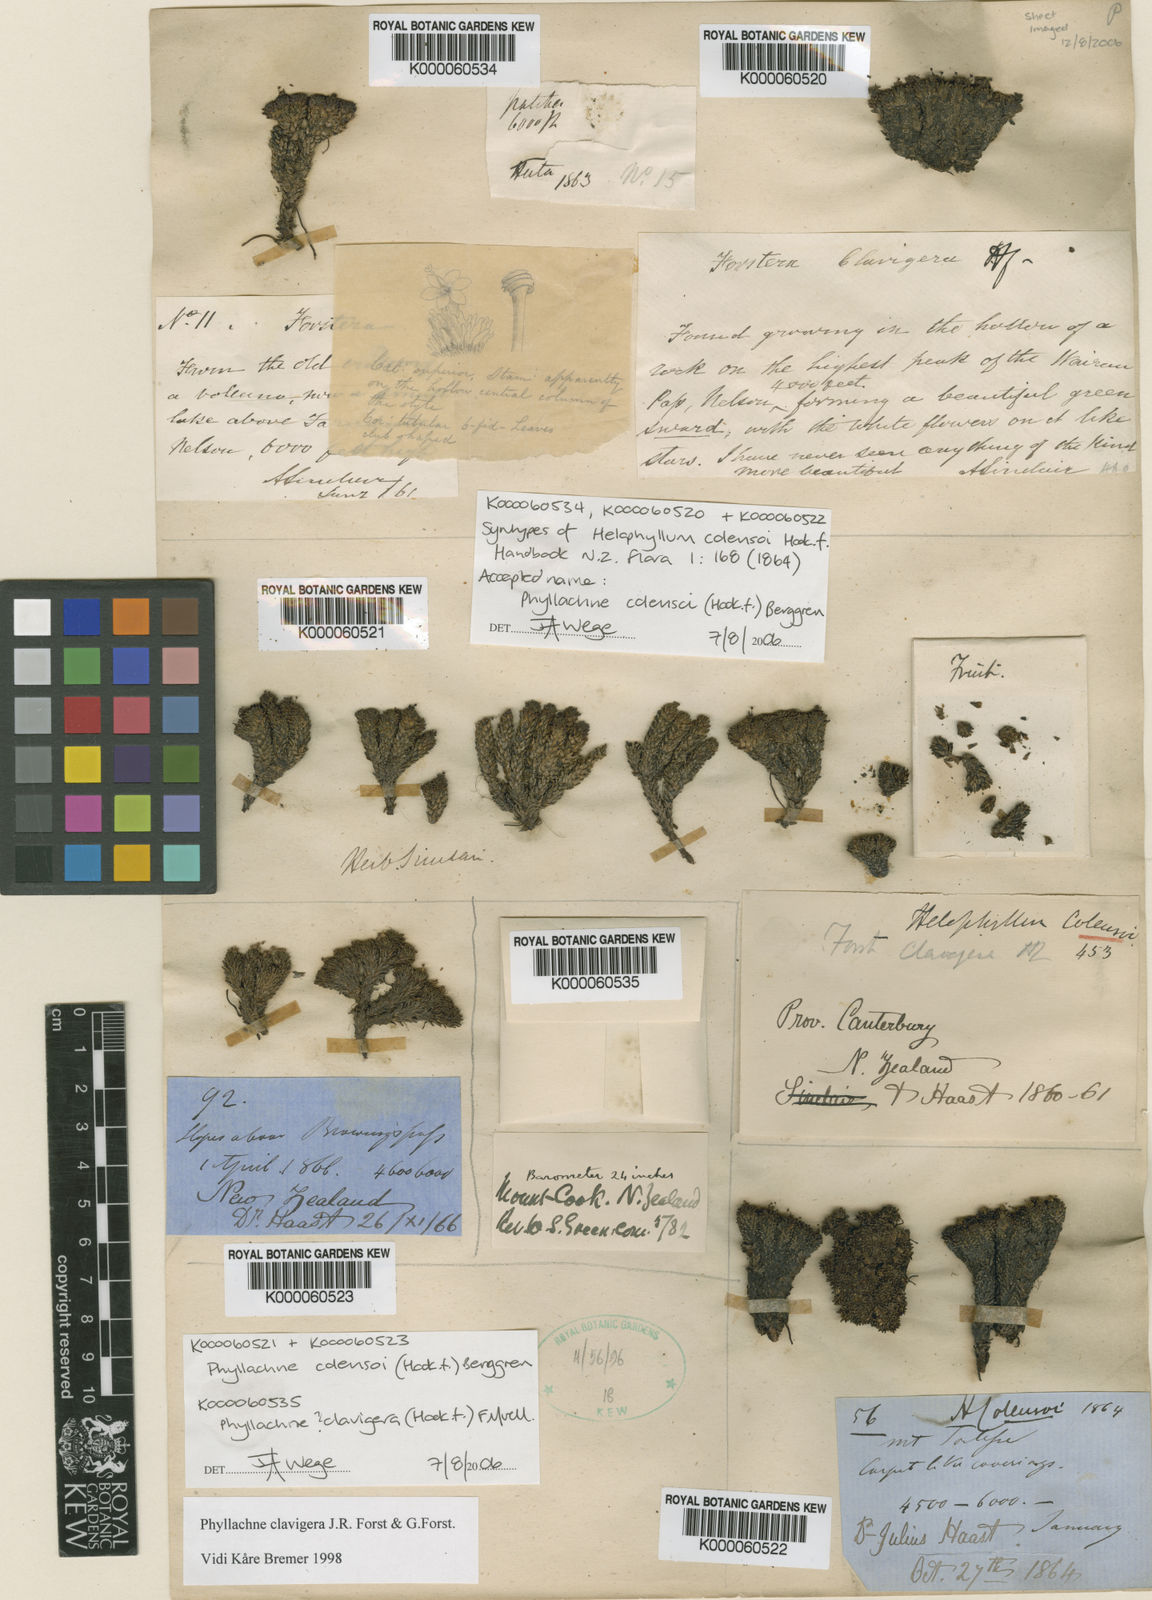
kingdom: Plantae
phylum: Tracheophyta
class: Magnoliopsida
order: Asterales
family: Stylidiaceae
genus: Phyllachne
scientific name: Phyllachne colensoi
